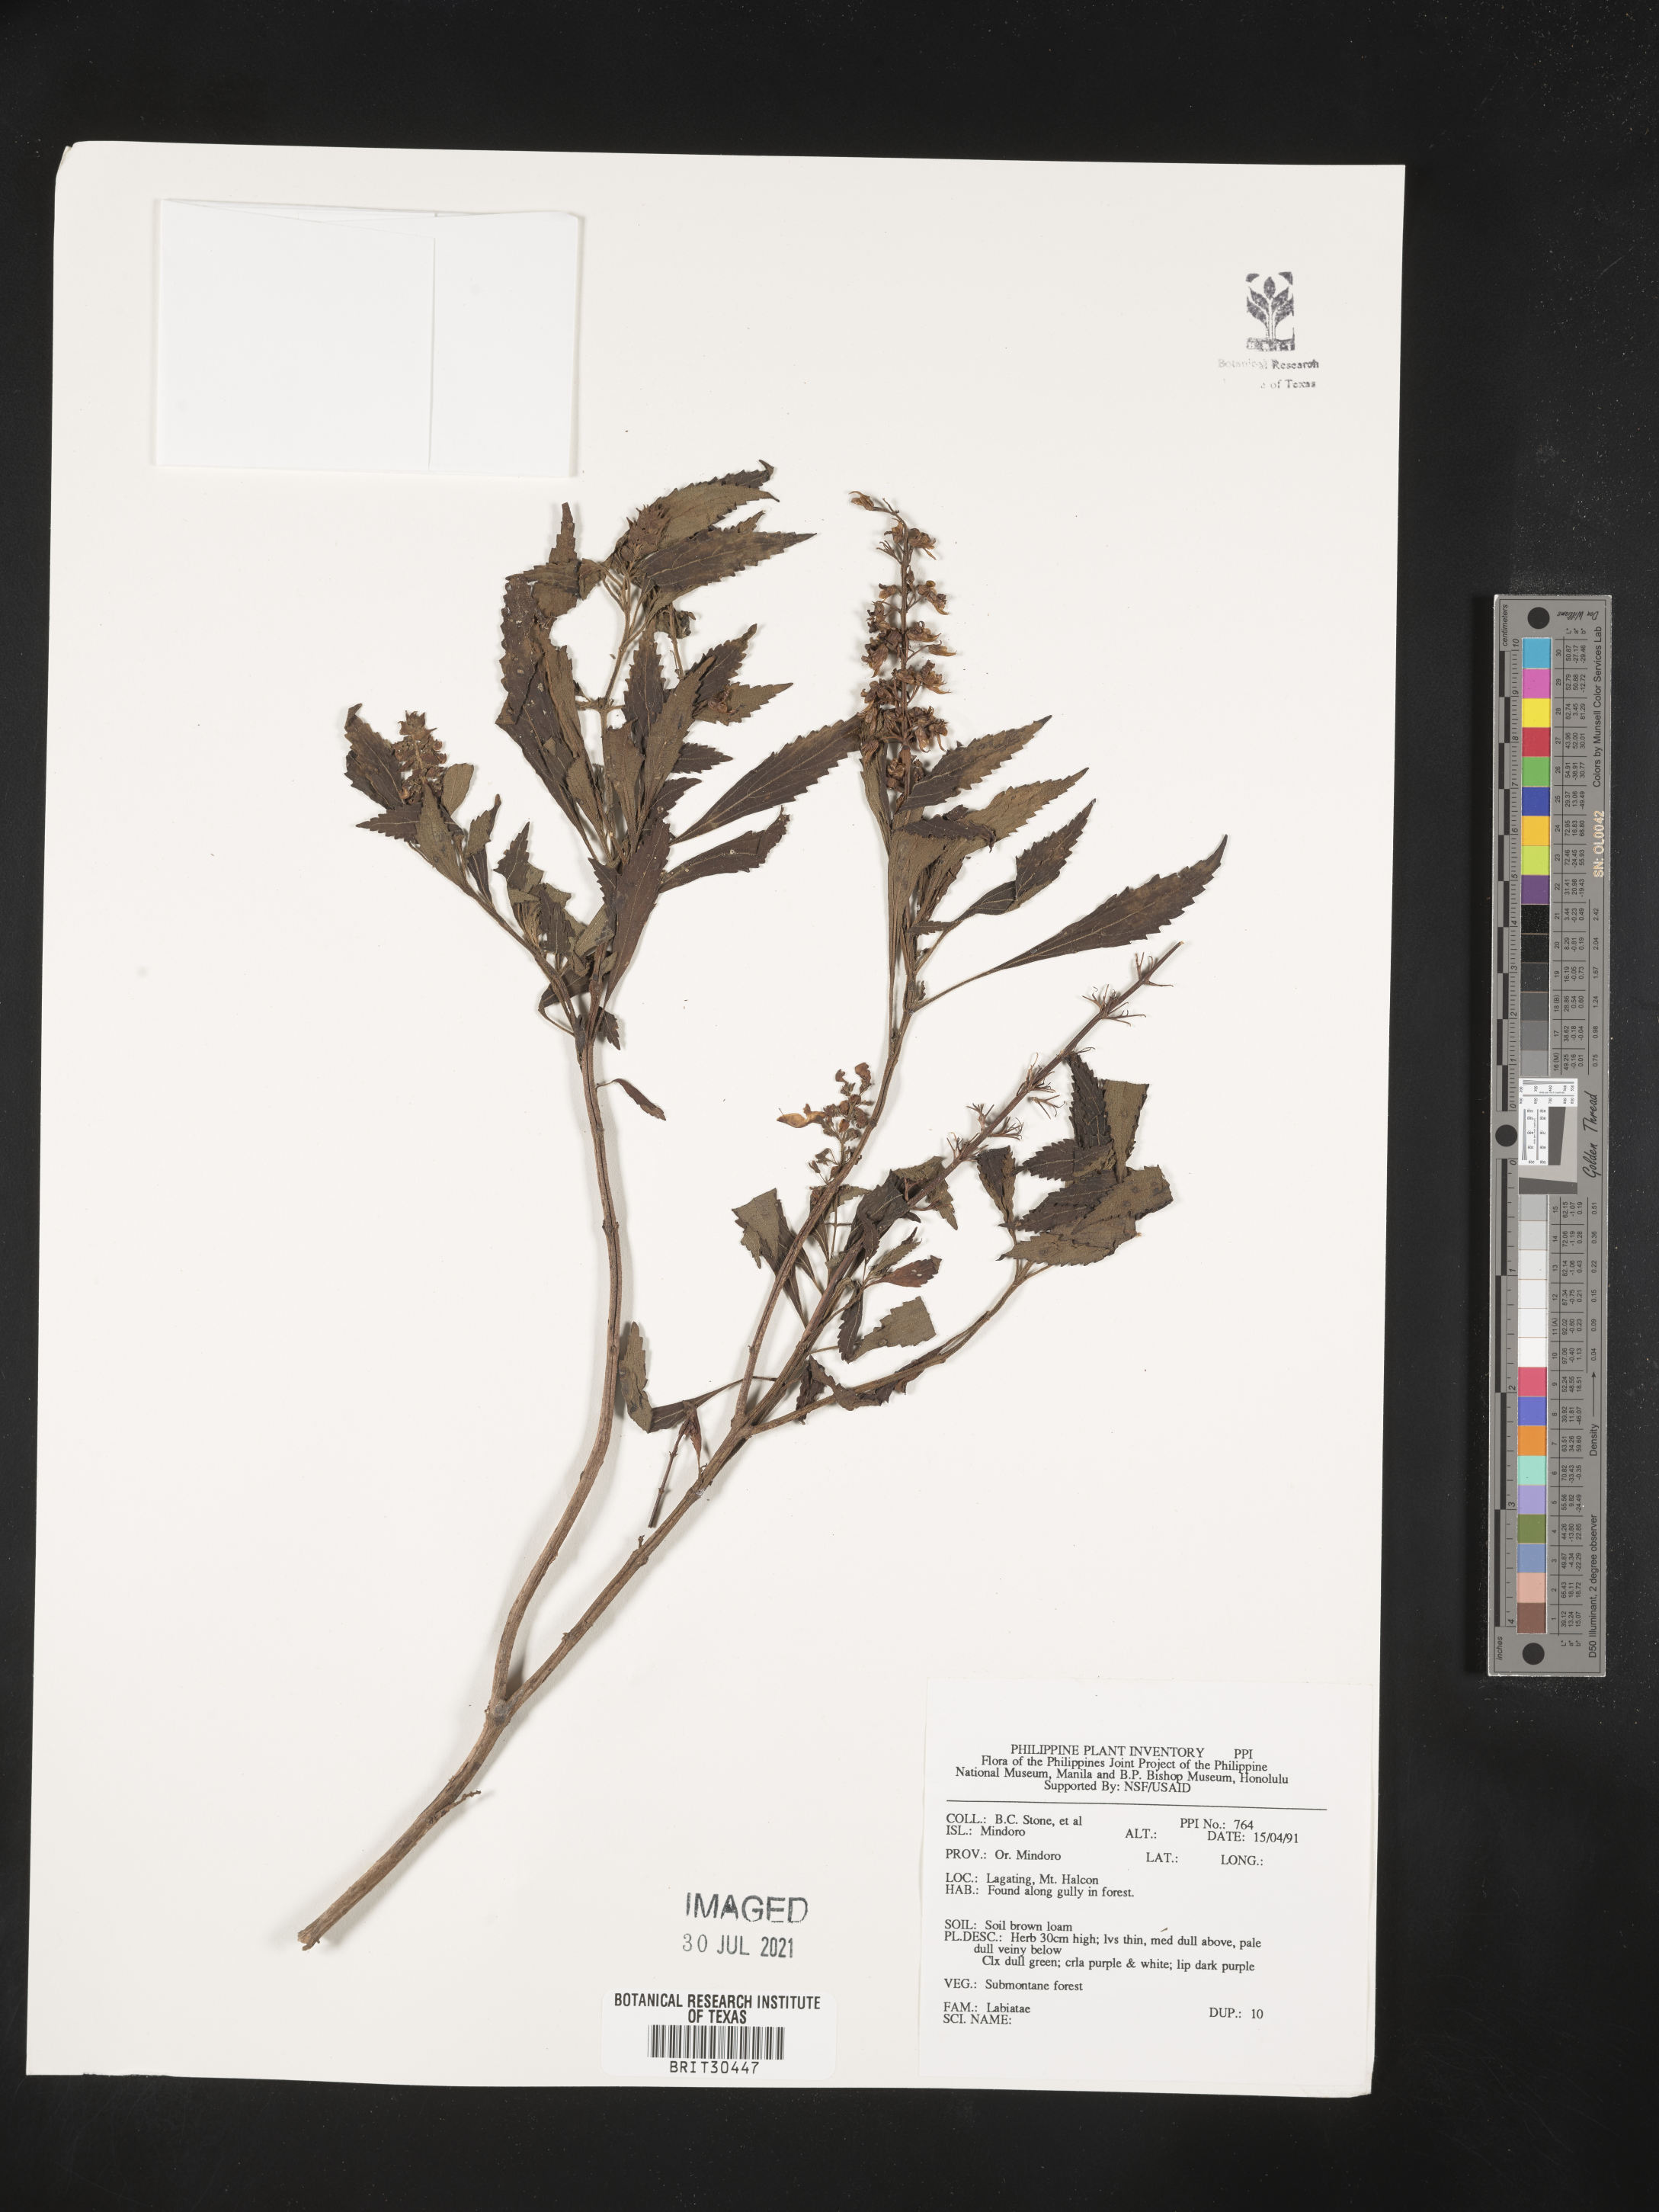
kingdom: Plantae
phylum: Tracheophyta
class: Magnoliopsida
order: Lamiales
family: Lamiaceae
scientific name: Lamiaceae
